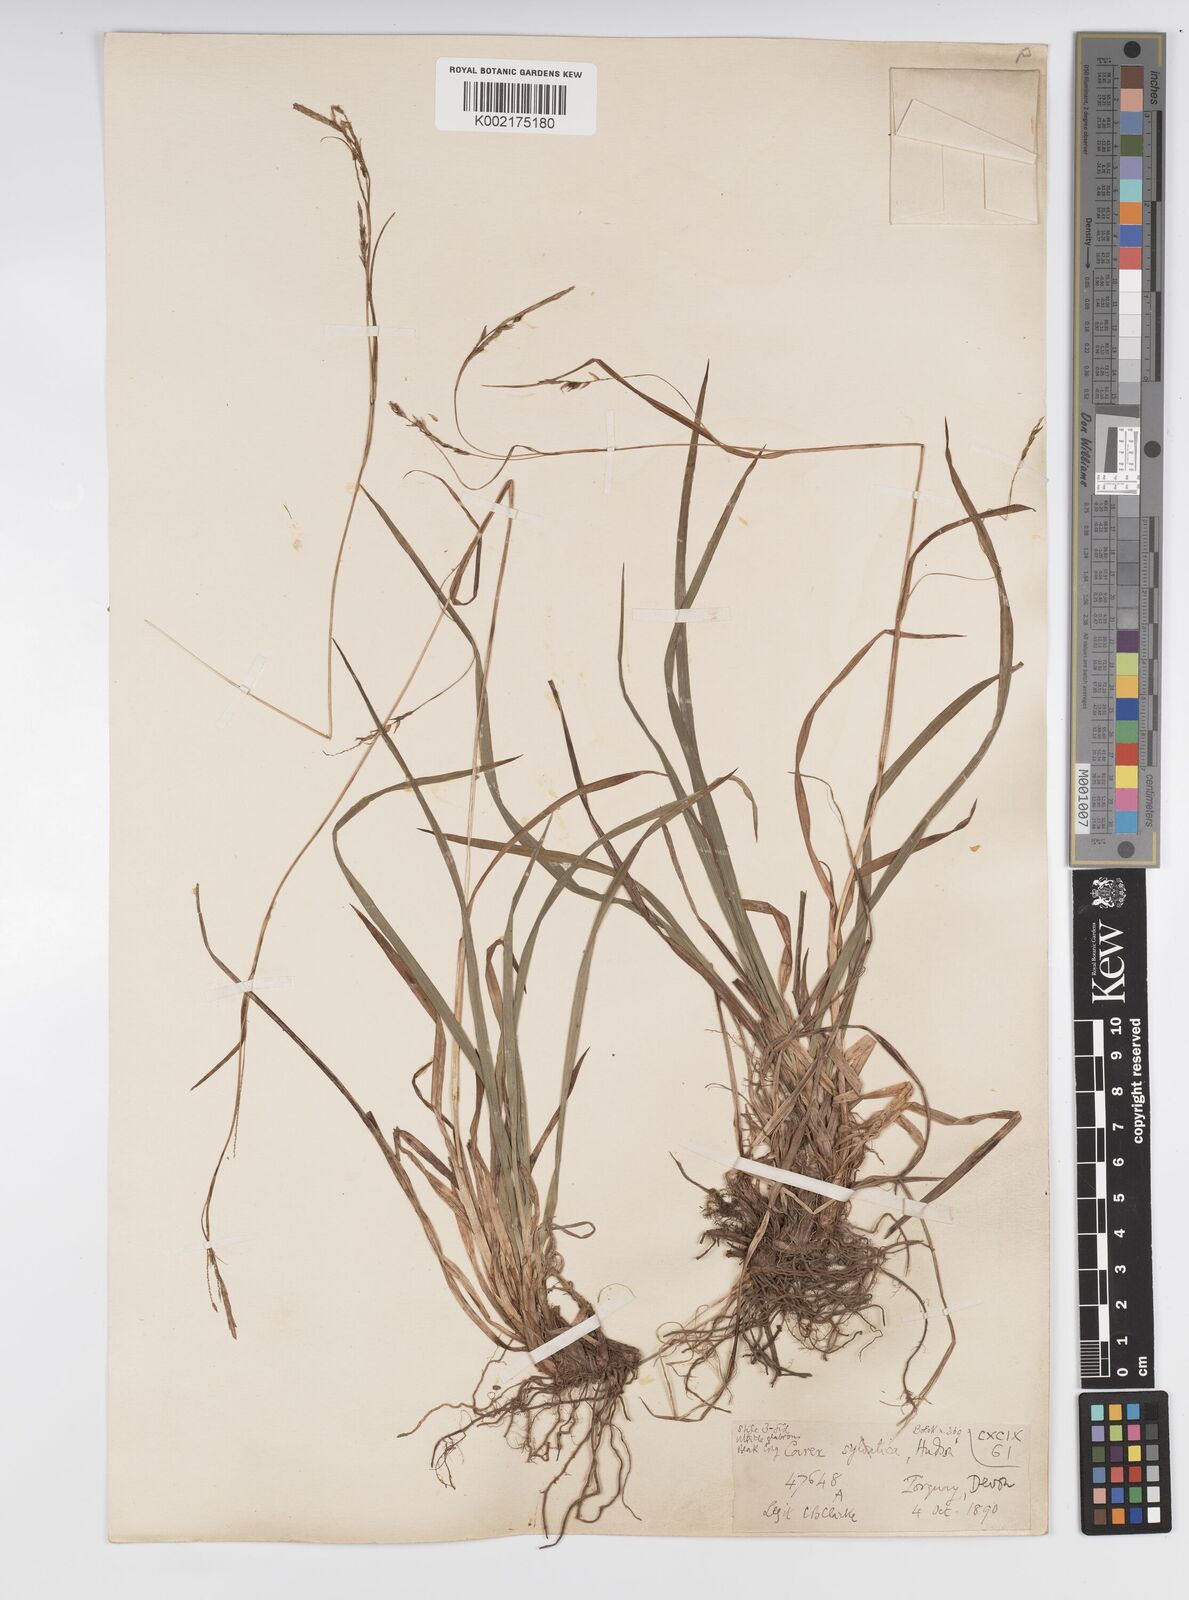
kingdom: Plantae
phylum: Tracheophyta
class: Liliopsida
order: Poales
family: Cyperaceae
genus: Carex
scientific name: Carex sylvatica
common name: Wood-sedge
